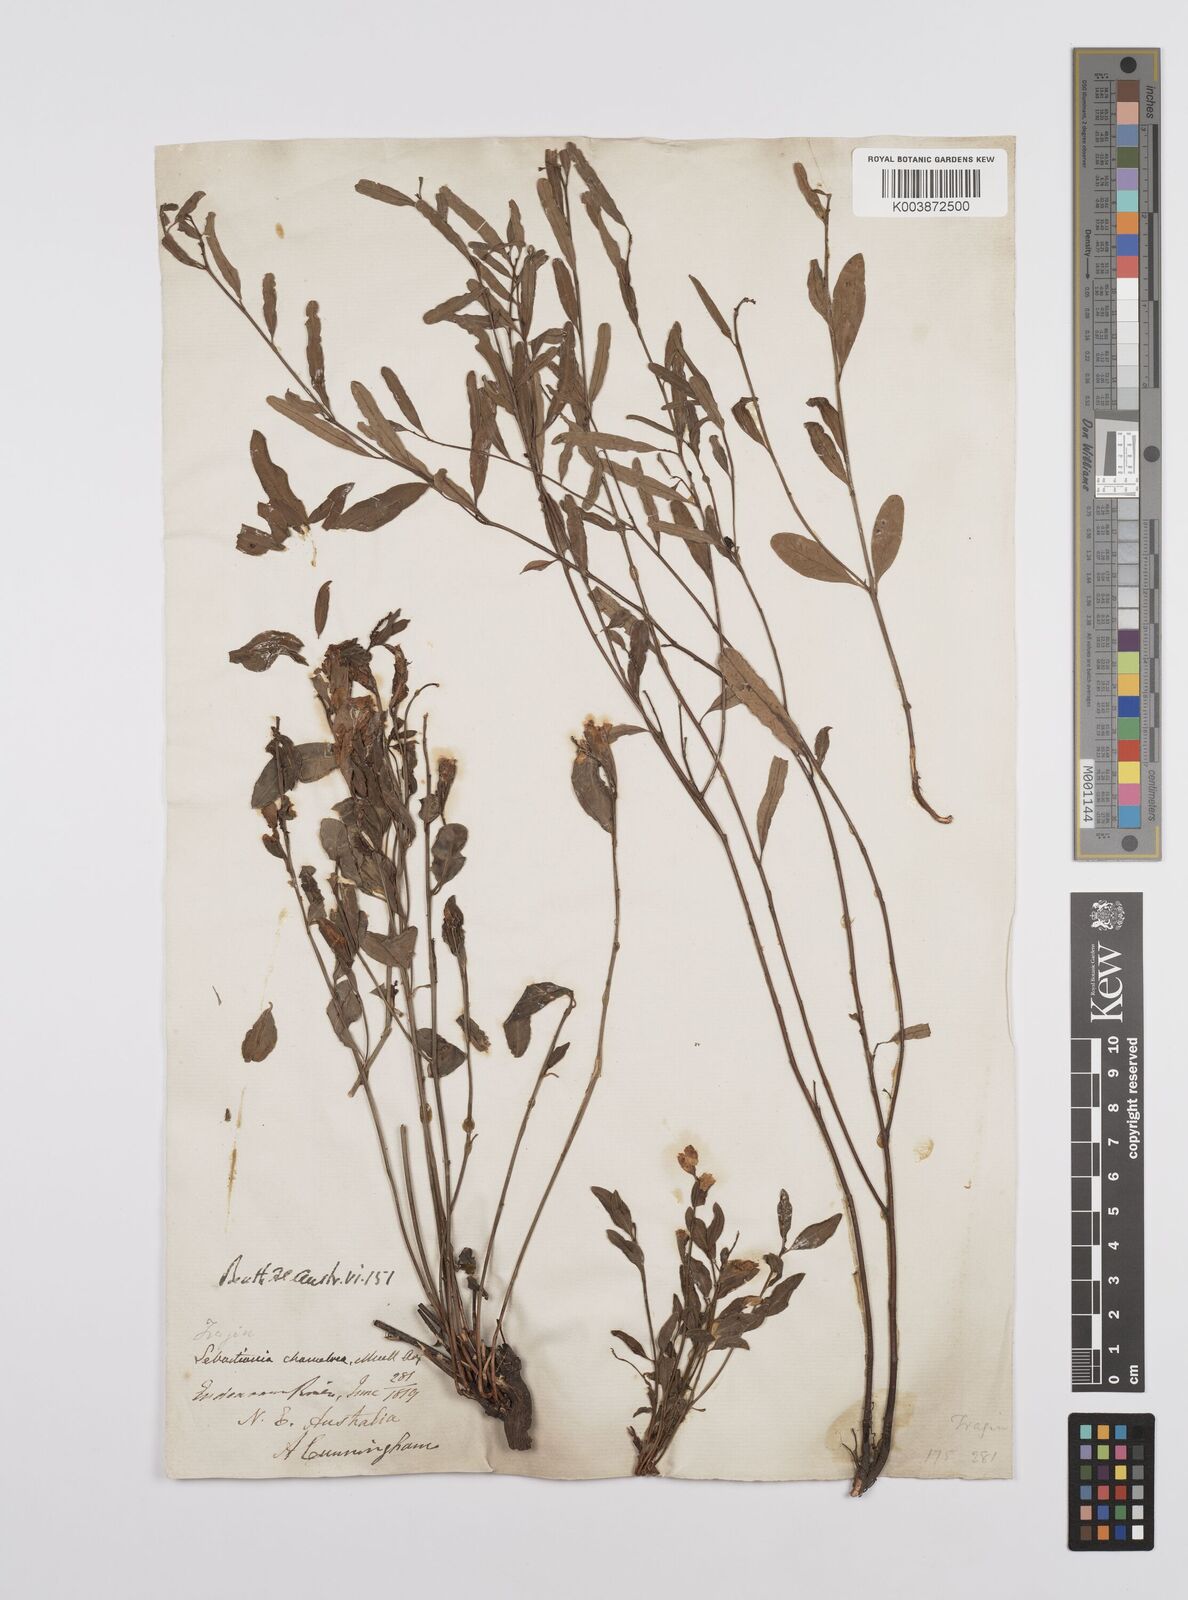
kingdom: Plantae
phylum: Tracheophyta
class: Magnoliopsida
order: Malpighiales
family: Euphorbiaceae
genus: Microstachys
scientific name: Microstachys chamaelea
